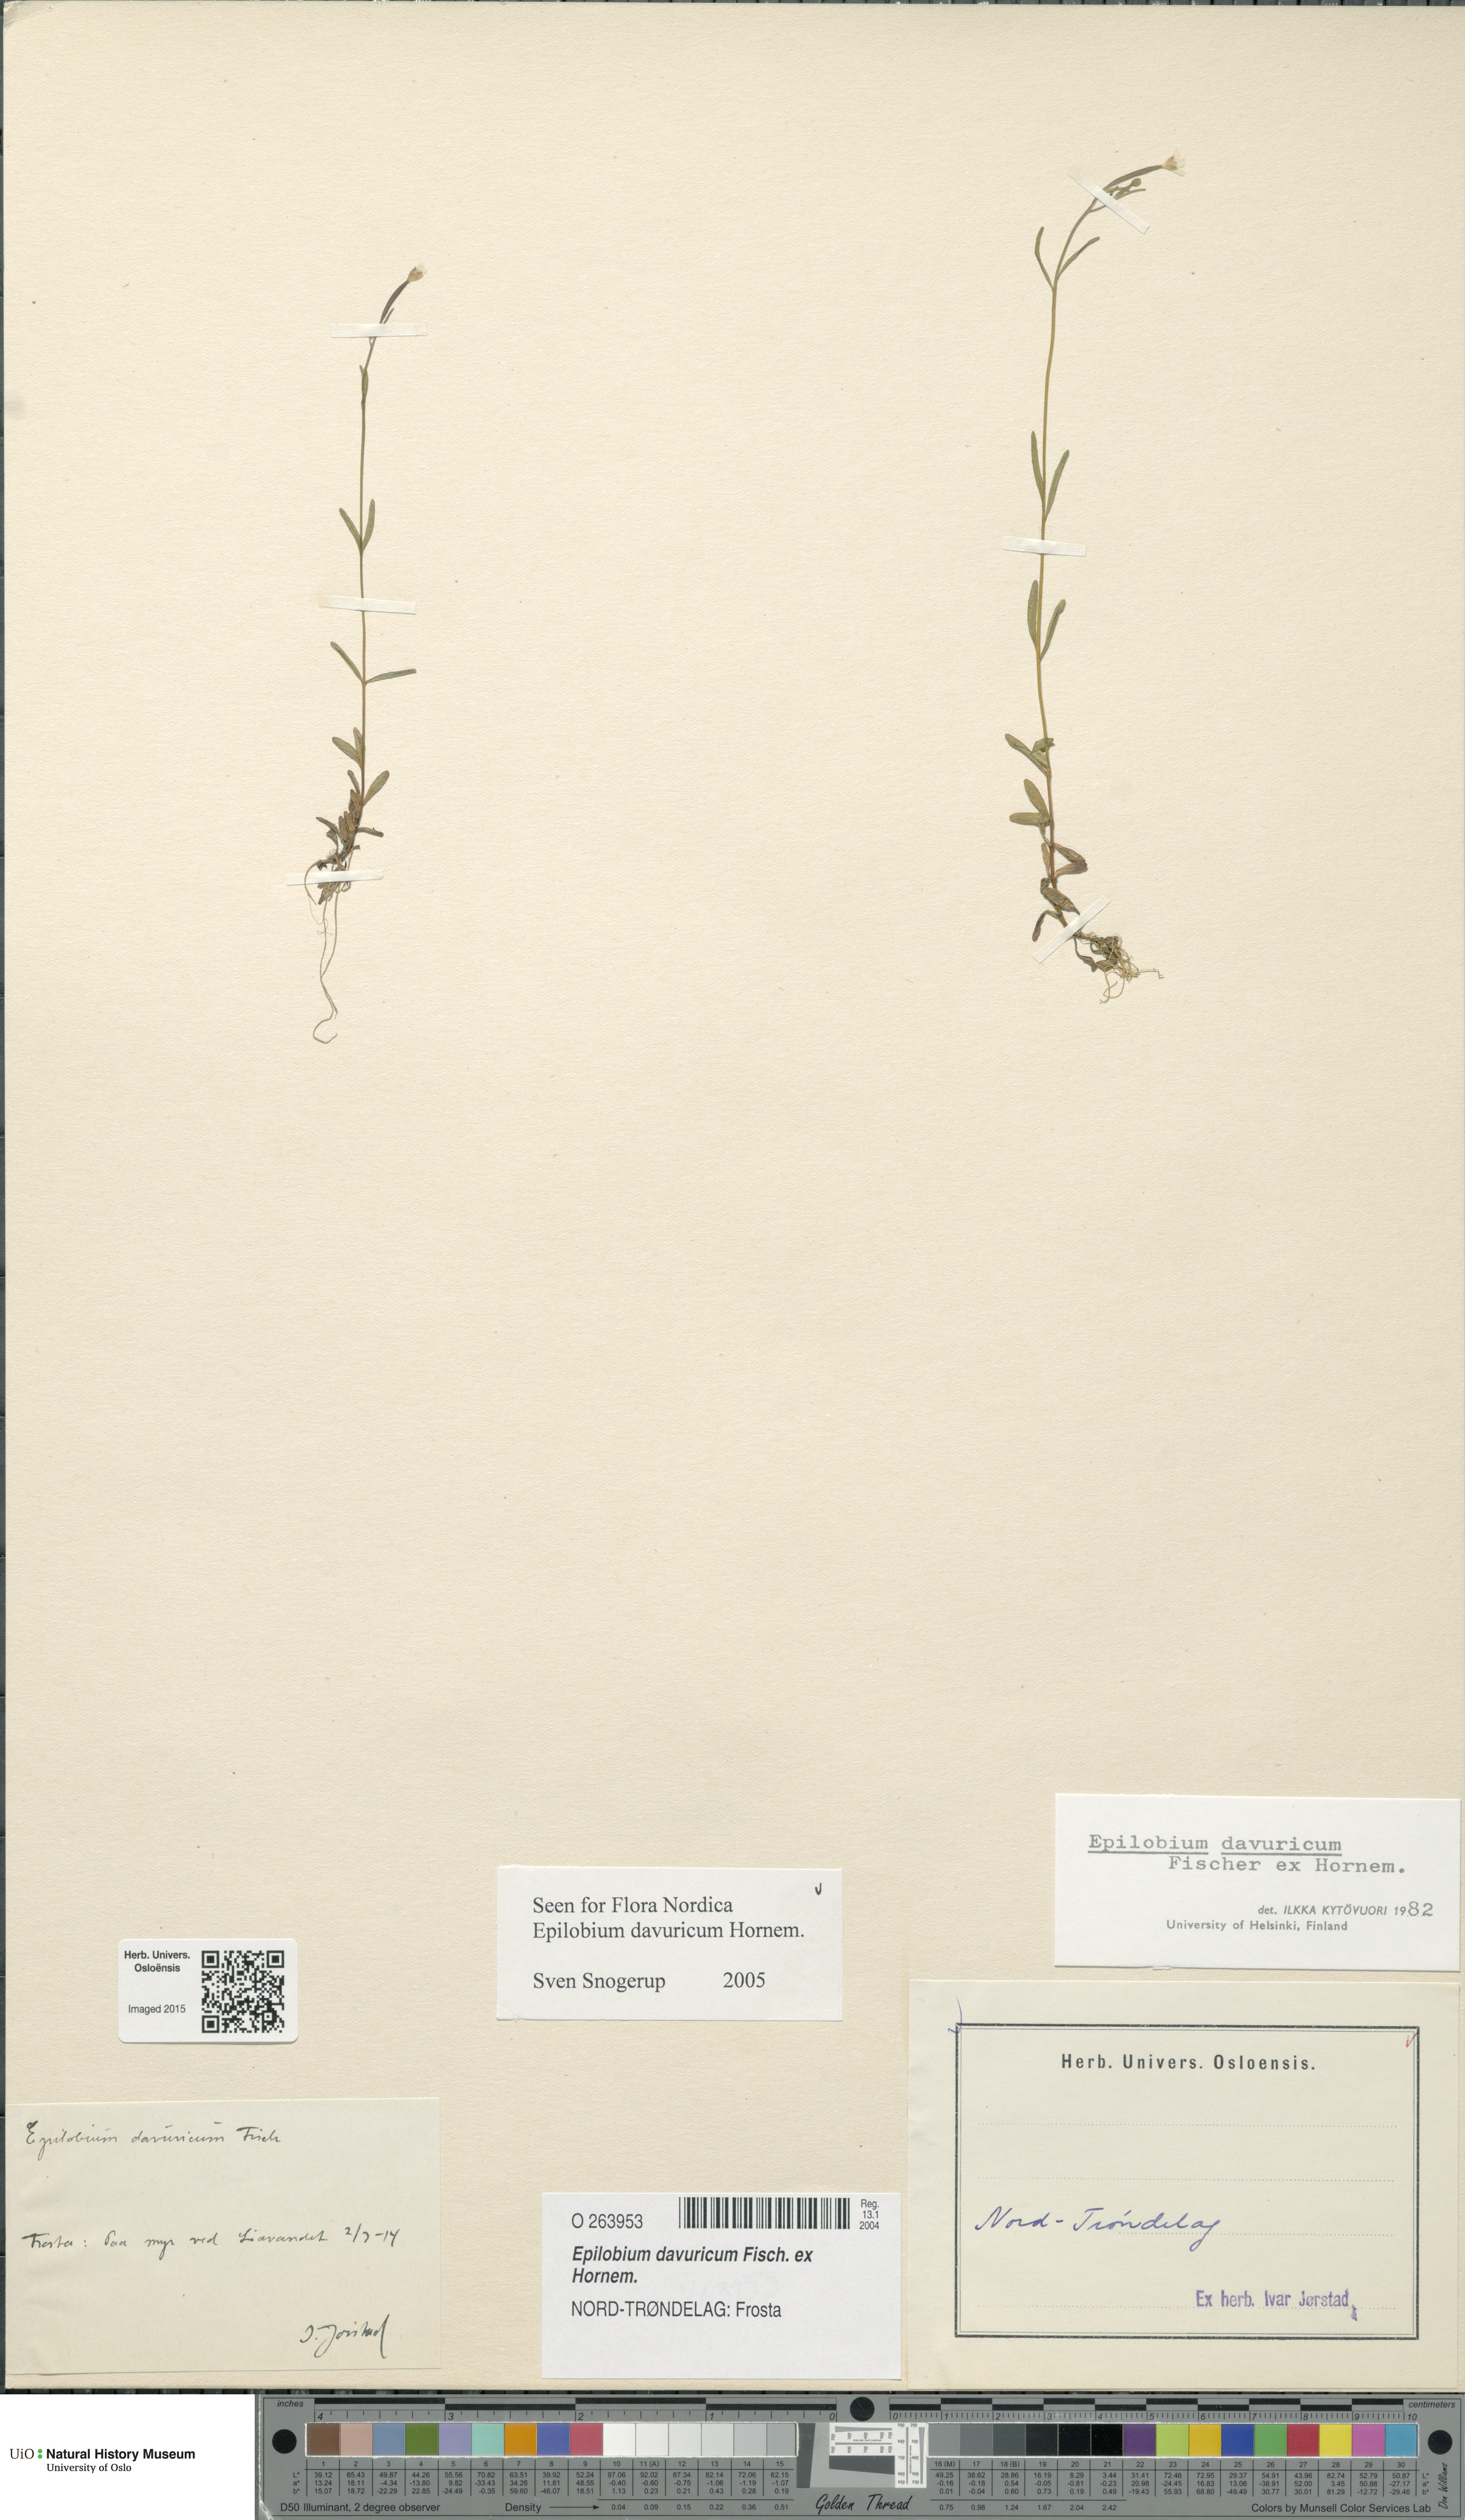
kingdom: Plantae
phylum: Tracheophyta
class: Magnoliopsida
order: Myrtales
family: Onagraceae
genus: Epilobium
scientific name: Epilobium davuricum
